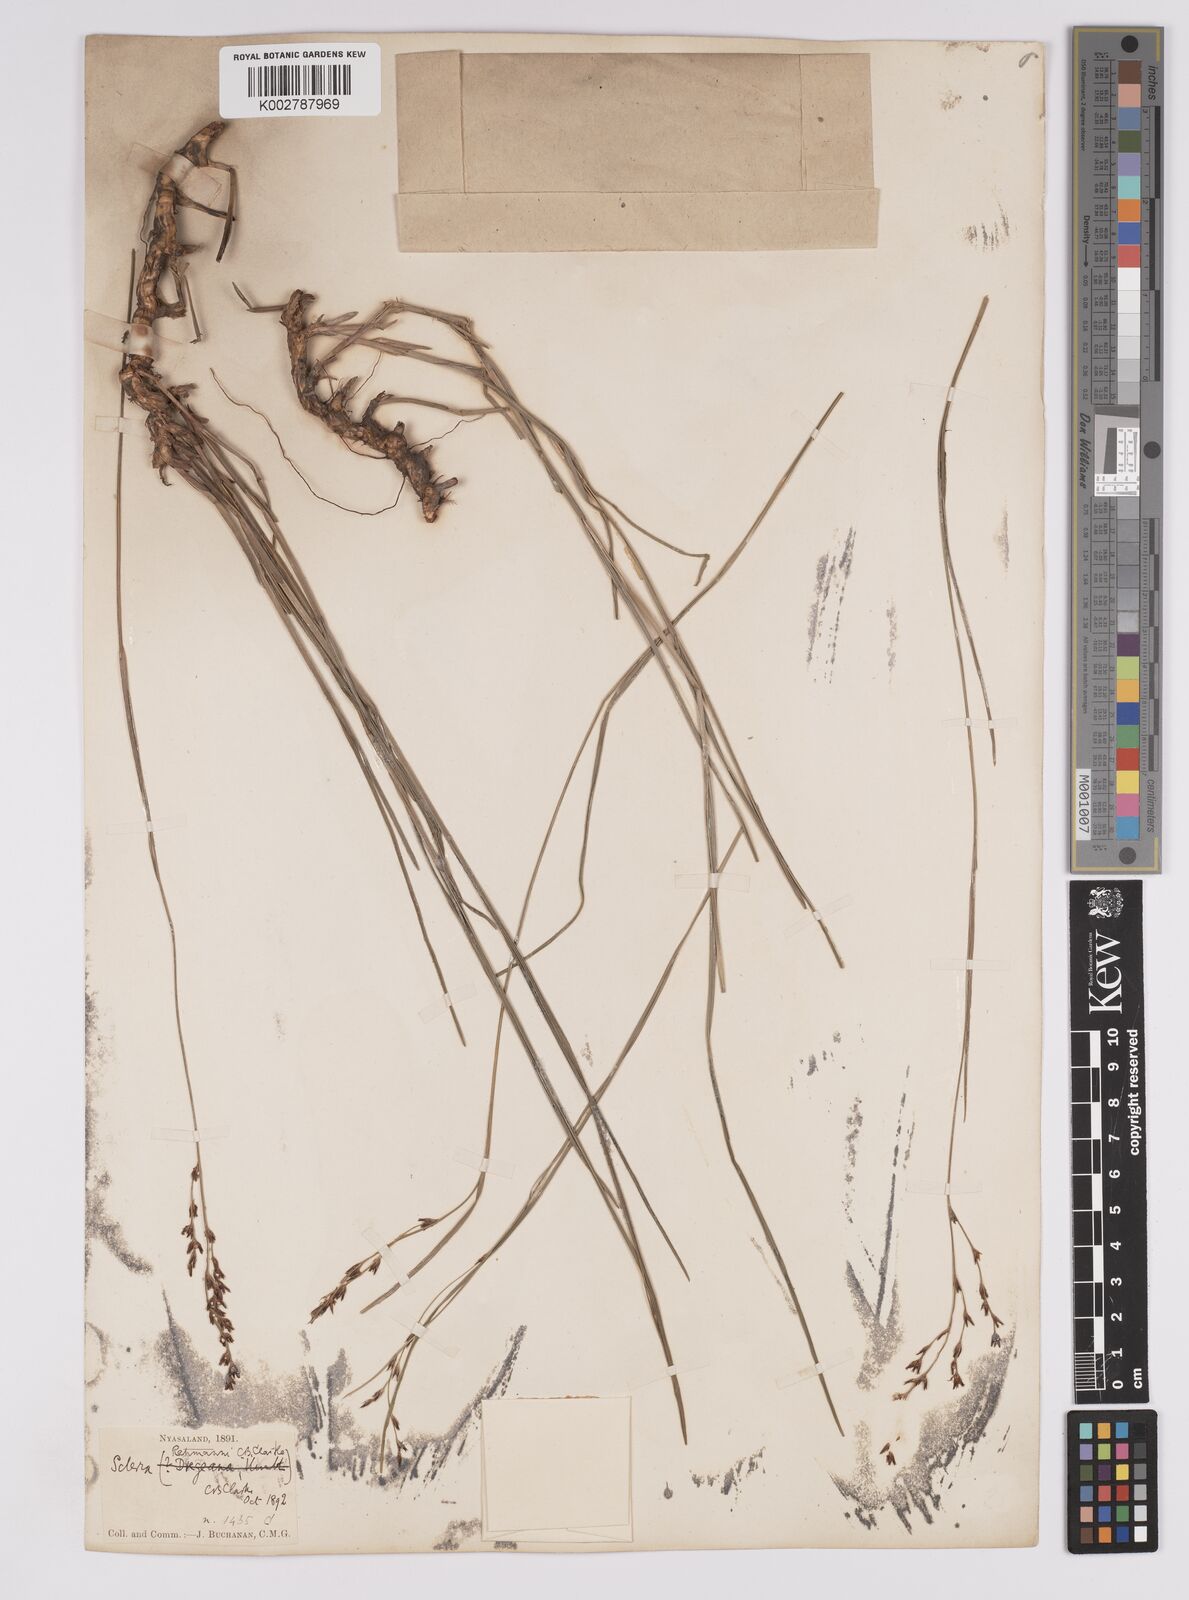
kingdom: Plantae
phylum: Tracheophyta
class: Liliopsida
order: Poales
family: Cyperaceae
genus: Scleria
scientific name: Scleria rehmannii
